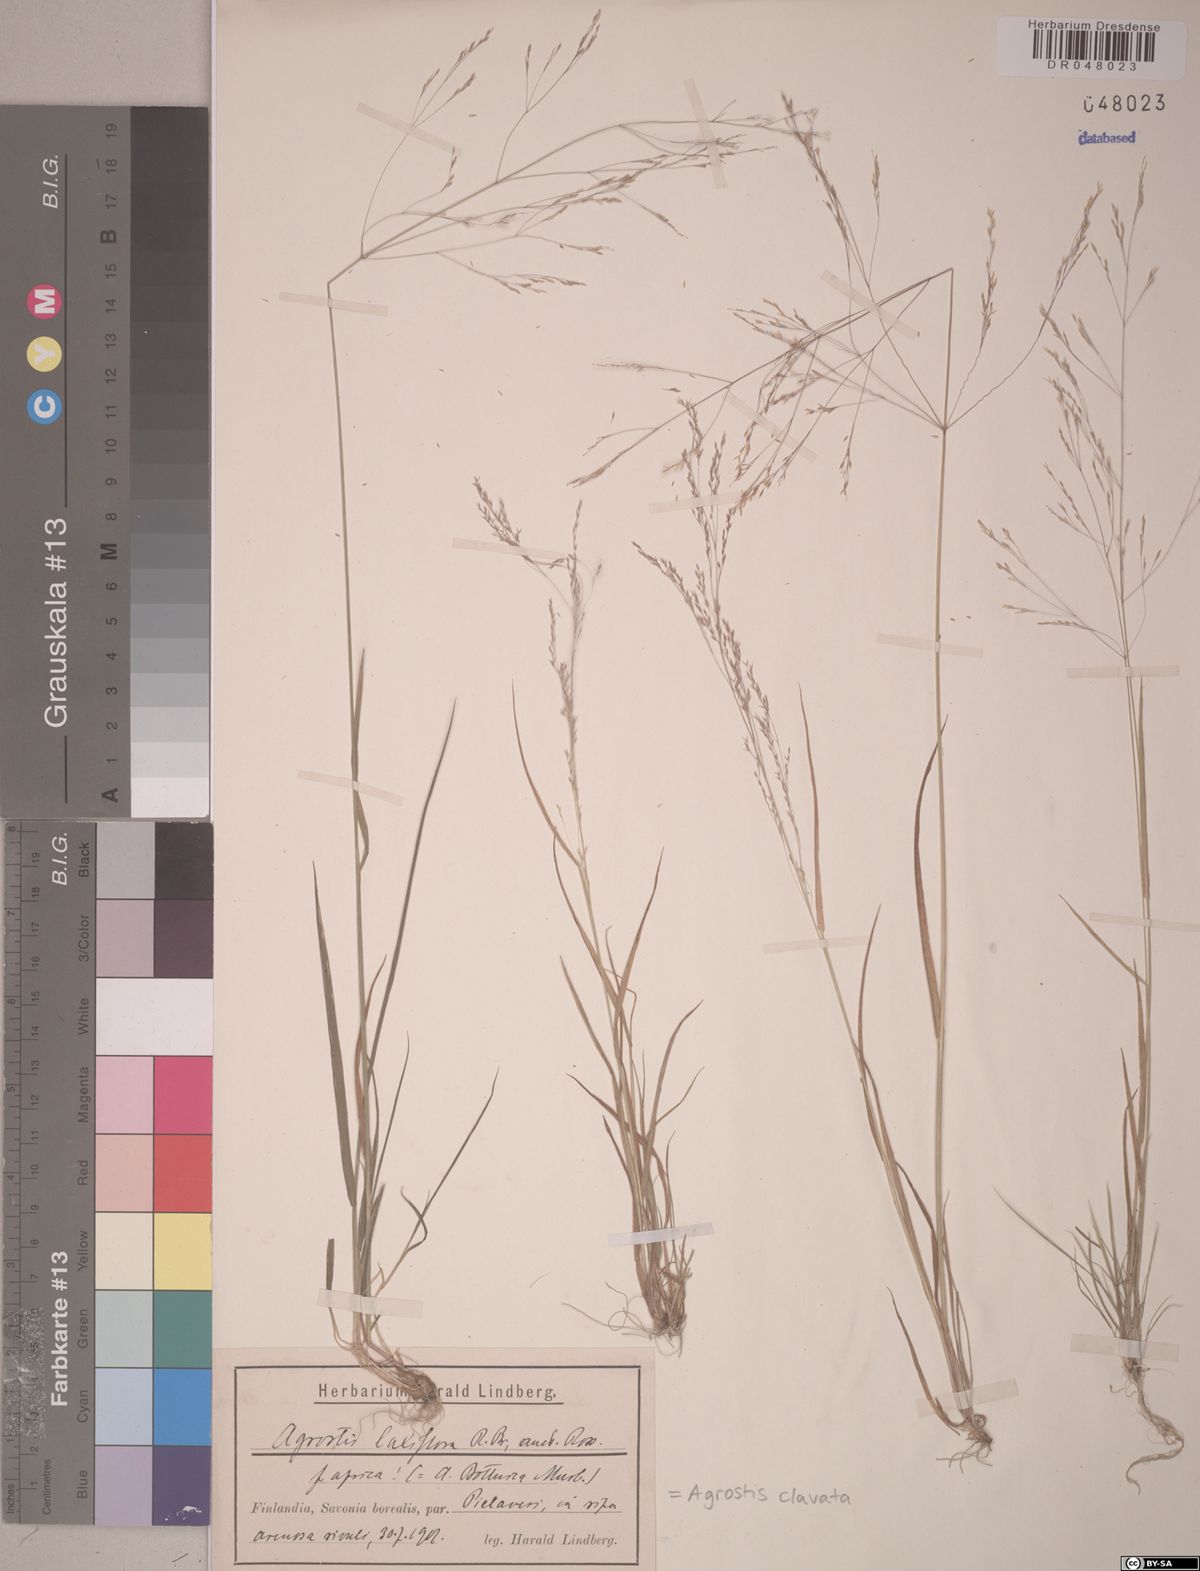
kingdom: Plantae
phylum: Tracheophyta
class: Liliopsida
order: Poales
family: Poaceae
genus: Agrostis
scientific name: Agrostis clavata
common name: Clavate bent
